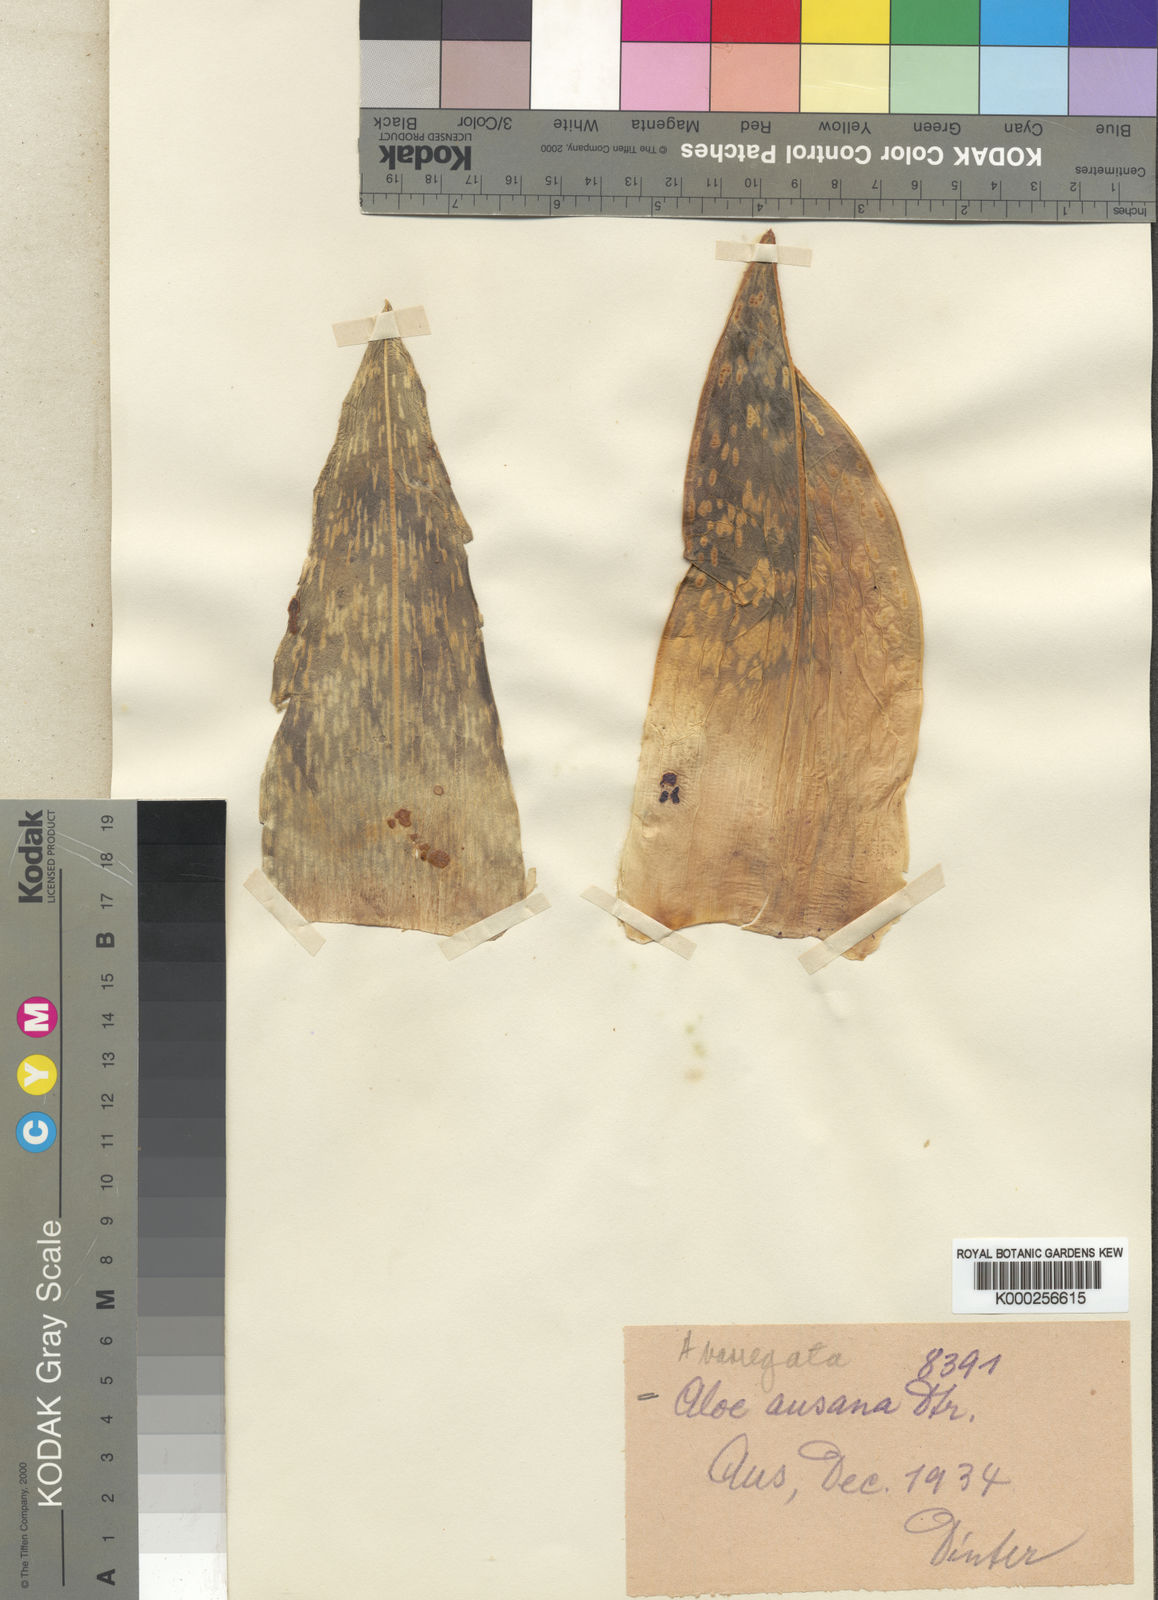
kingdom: Plantae
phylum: Tracheophyta
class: Liliopsida
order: Asparagales
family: Asphodelaceae
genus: Gonialoe
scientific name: Gonialoe variegata
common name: Aloe variegata
